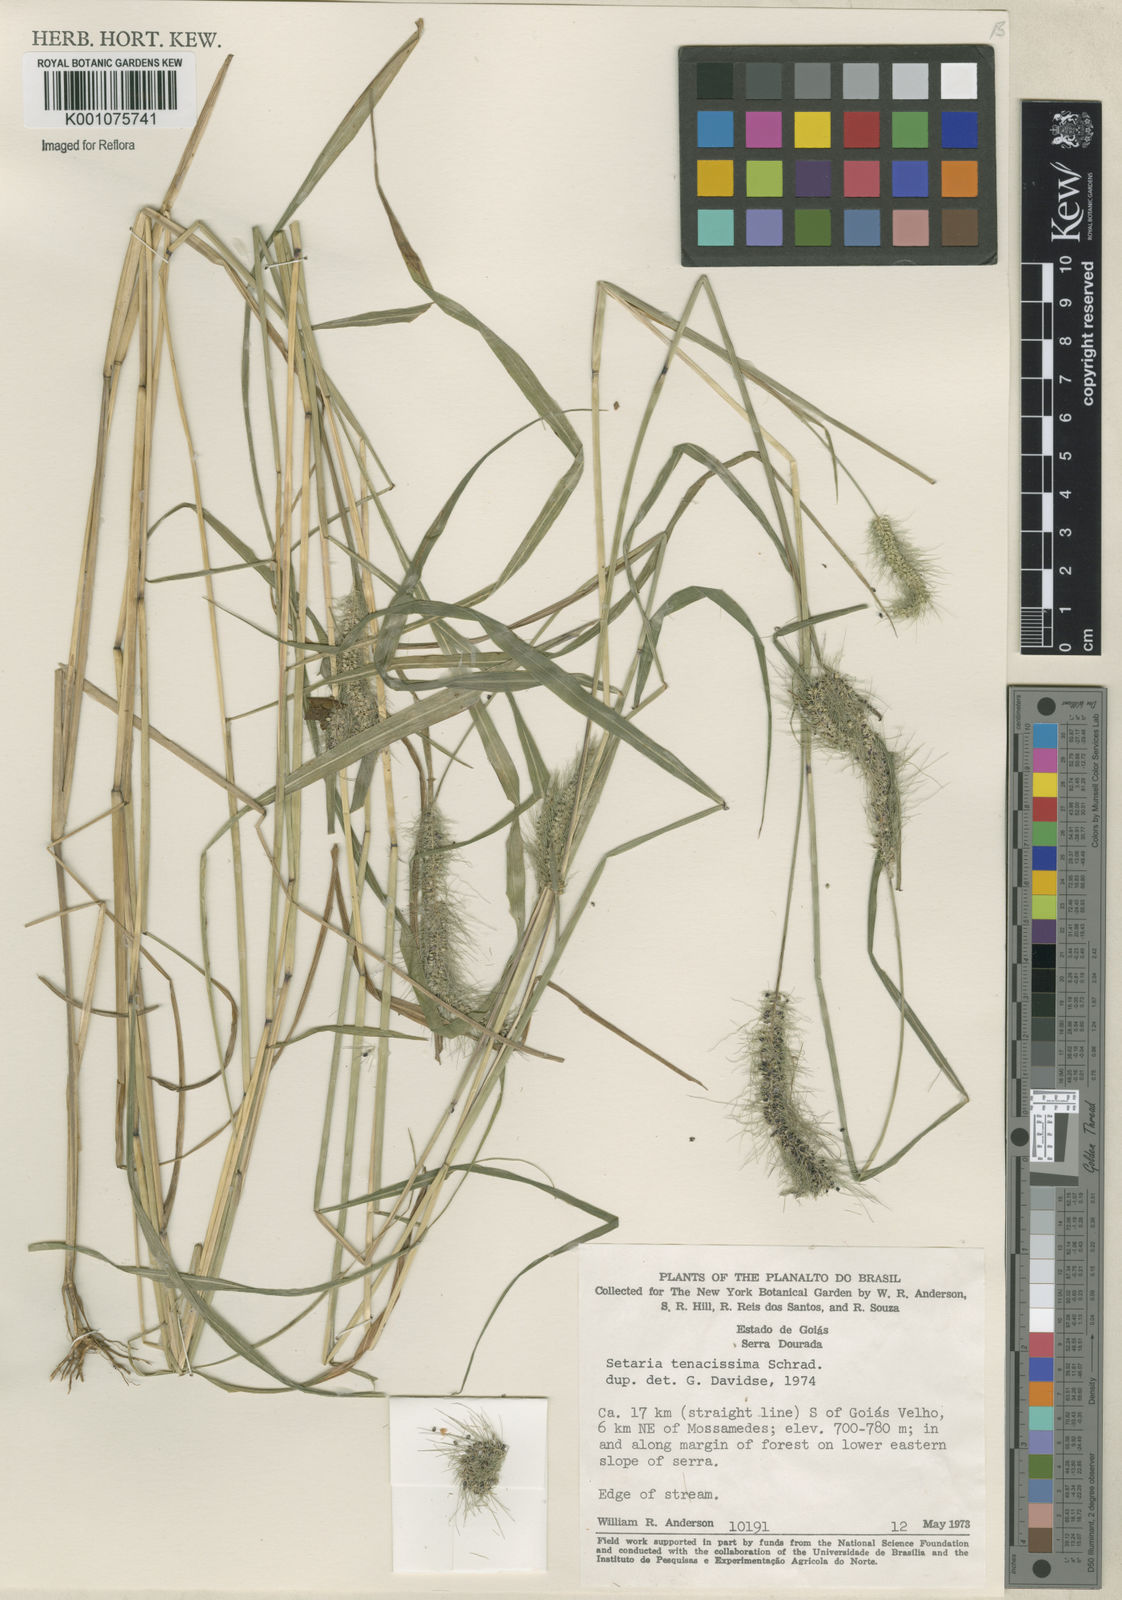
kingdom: Plantae
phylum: Tracheophyta
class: Liliopsida
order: Poales
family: Poaceae
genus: Setaria
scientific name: Setaria tenacissima
